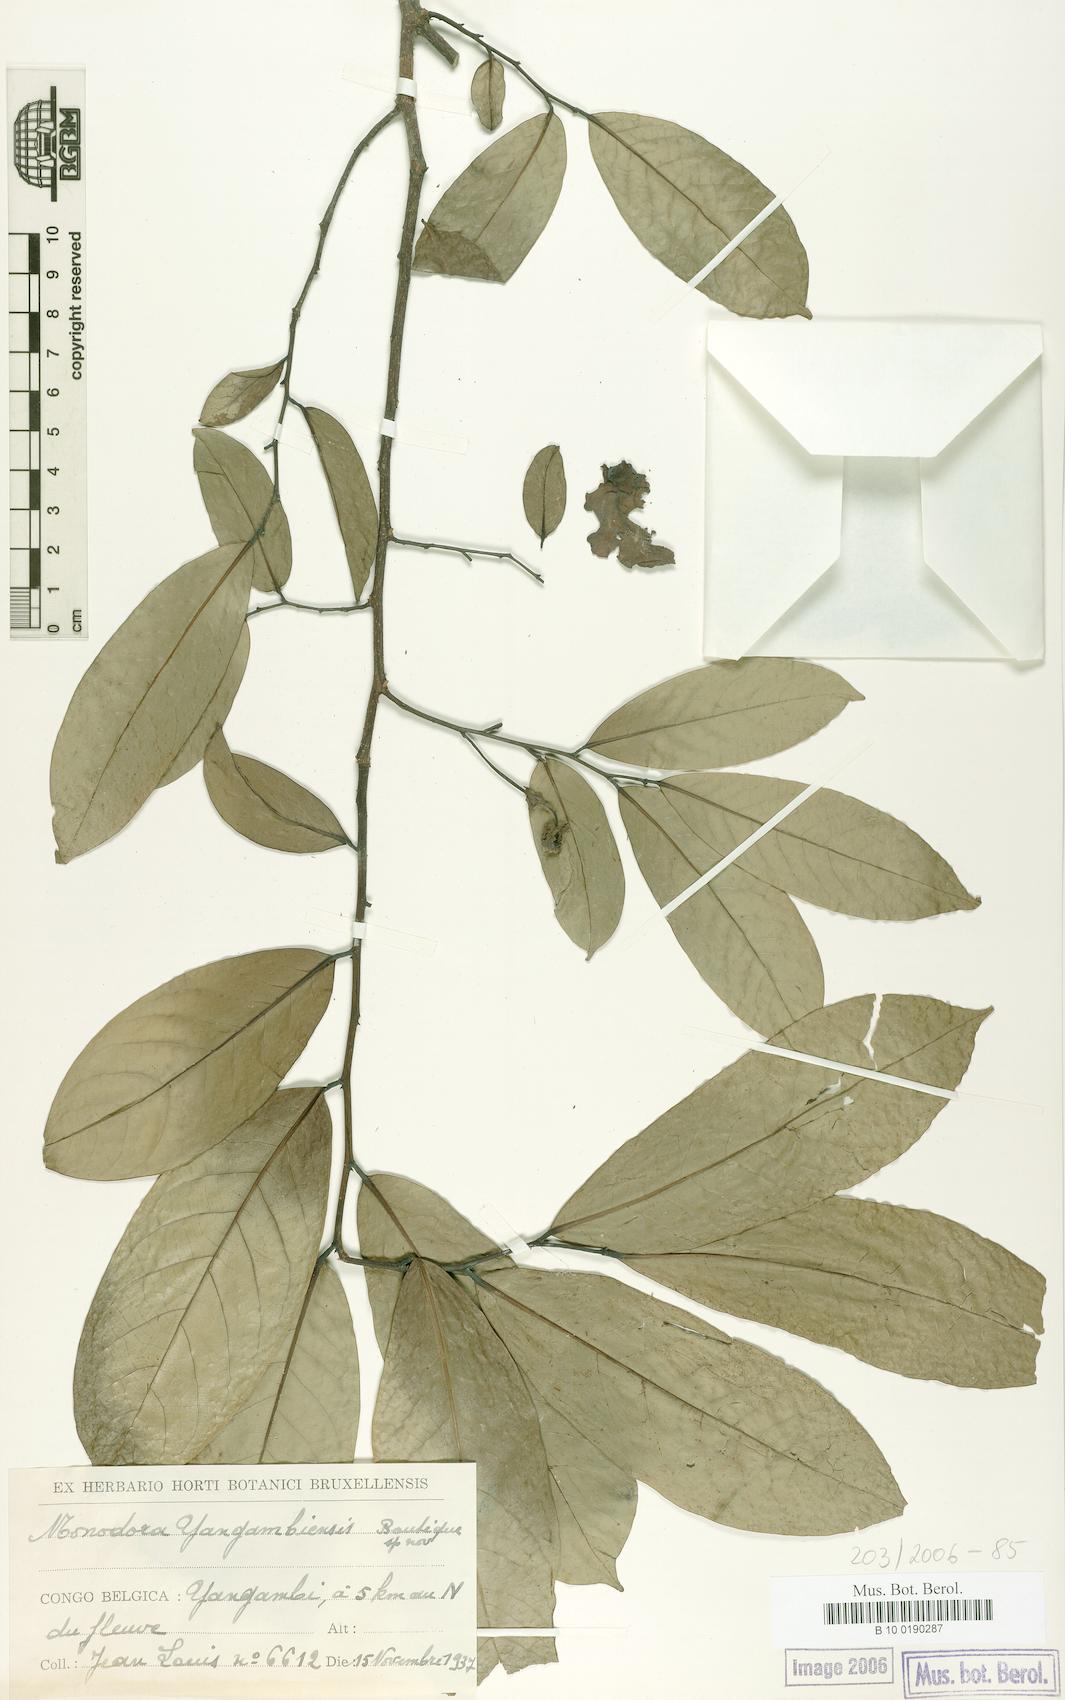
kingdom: Plantae
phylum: Tracheophyta
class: Magnoliopsida
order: Magnoliales
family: Annonaceae
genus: Monodora
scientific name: Monodora angolensis
